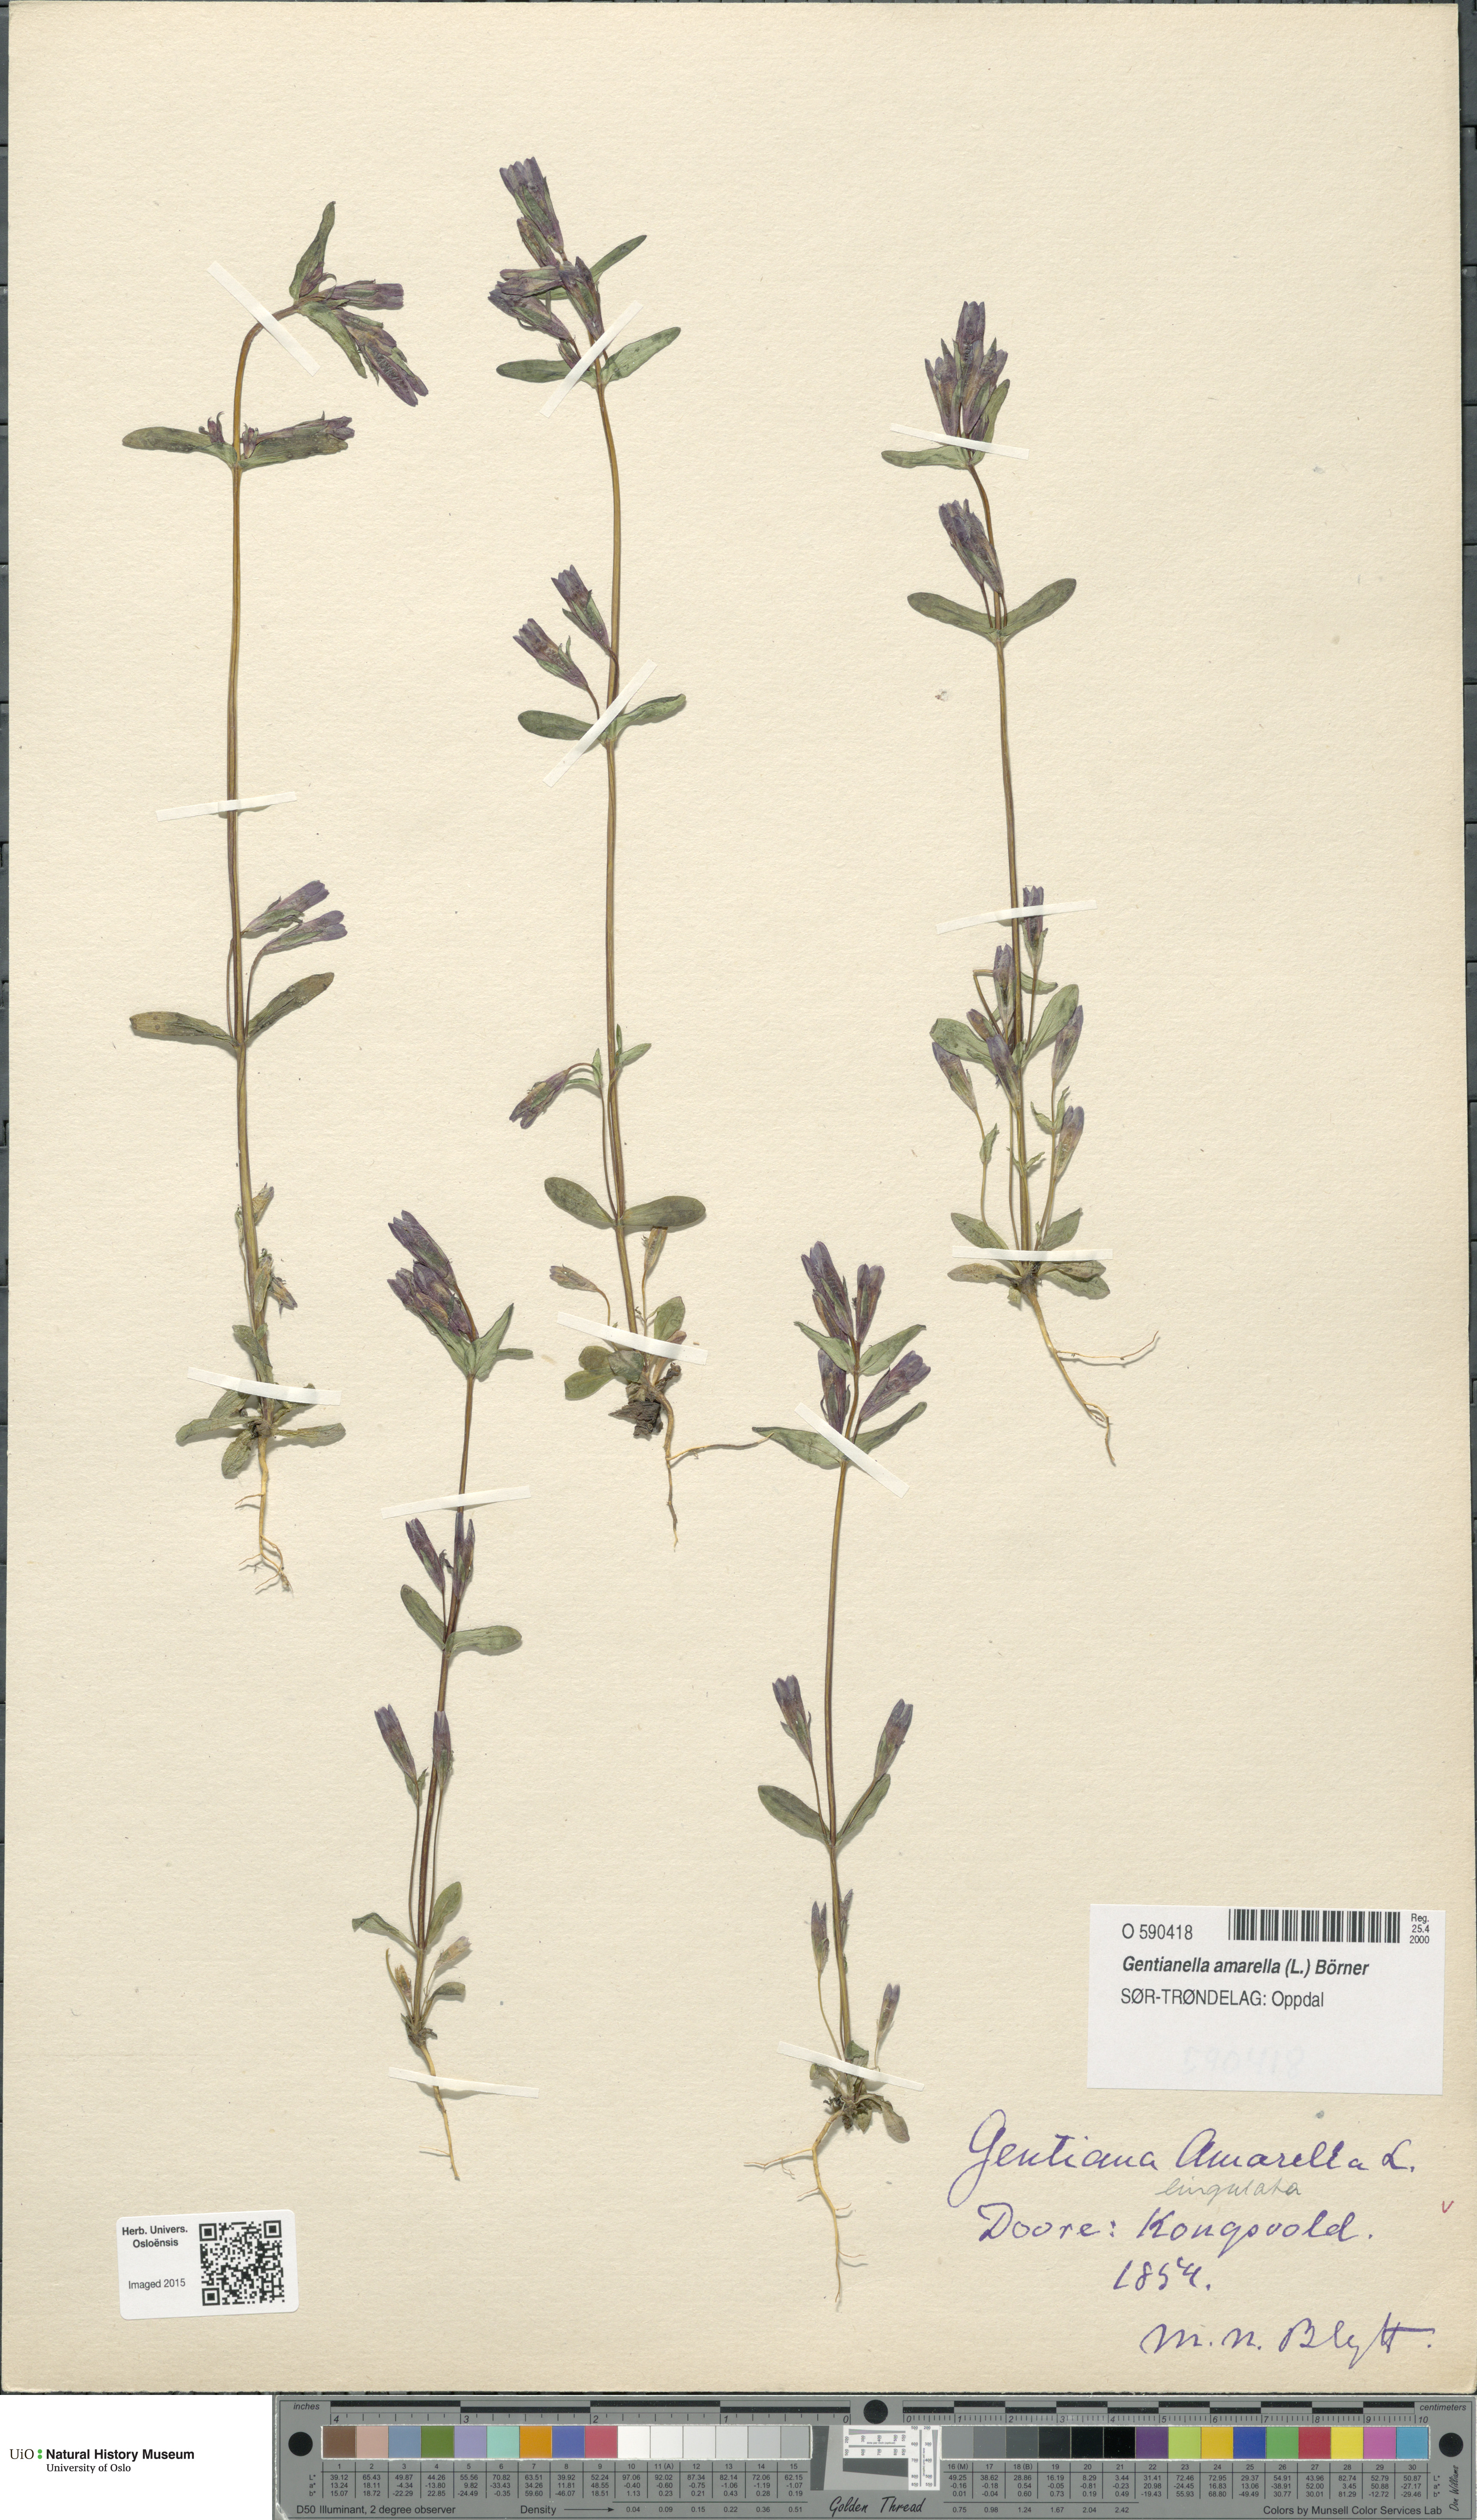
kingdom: Plantae
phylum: Tracheophyta
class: Magnoliopsida
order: Gentianales
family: Gentianaceae
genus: Gentianella
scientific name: Gentianella amarella
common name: Autumn gentian
